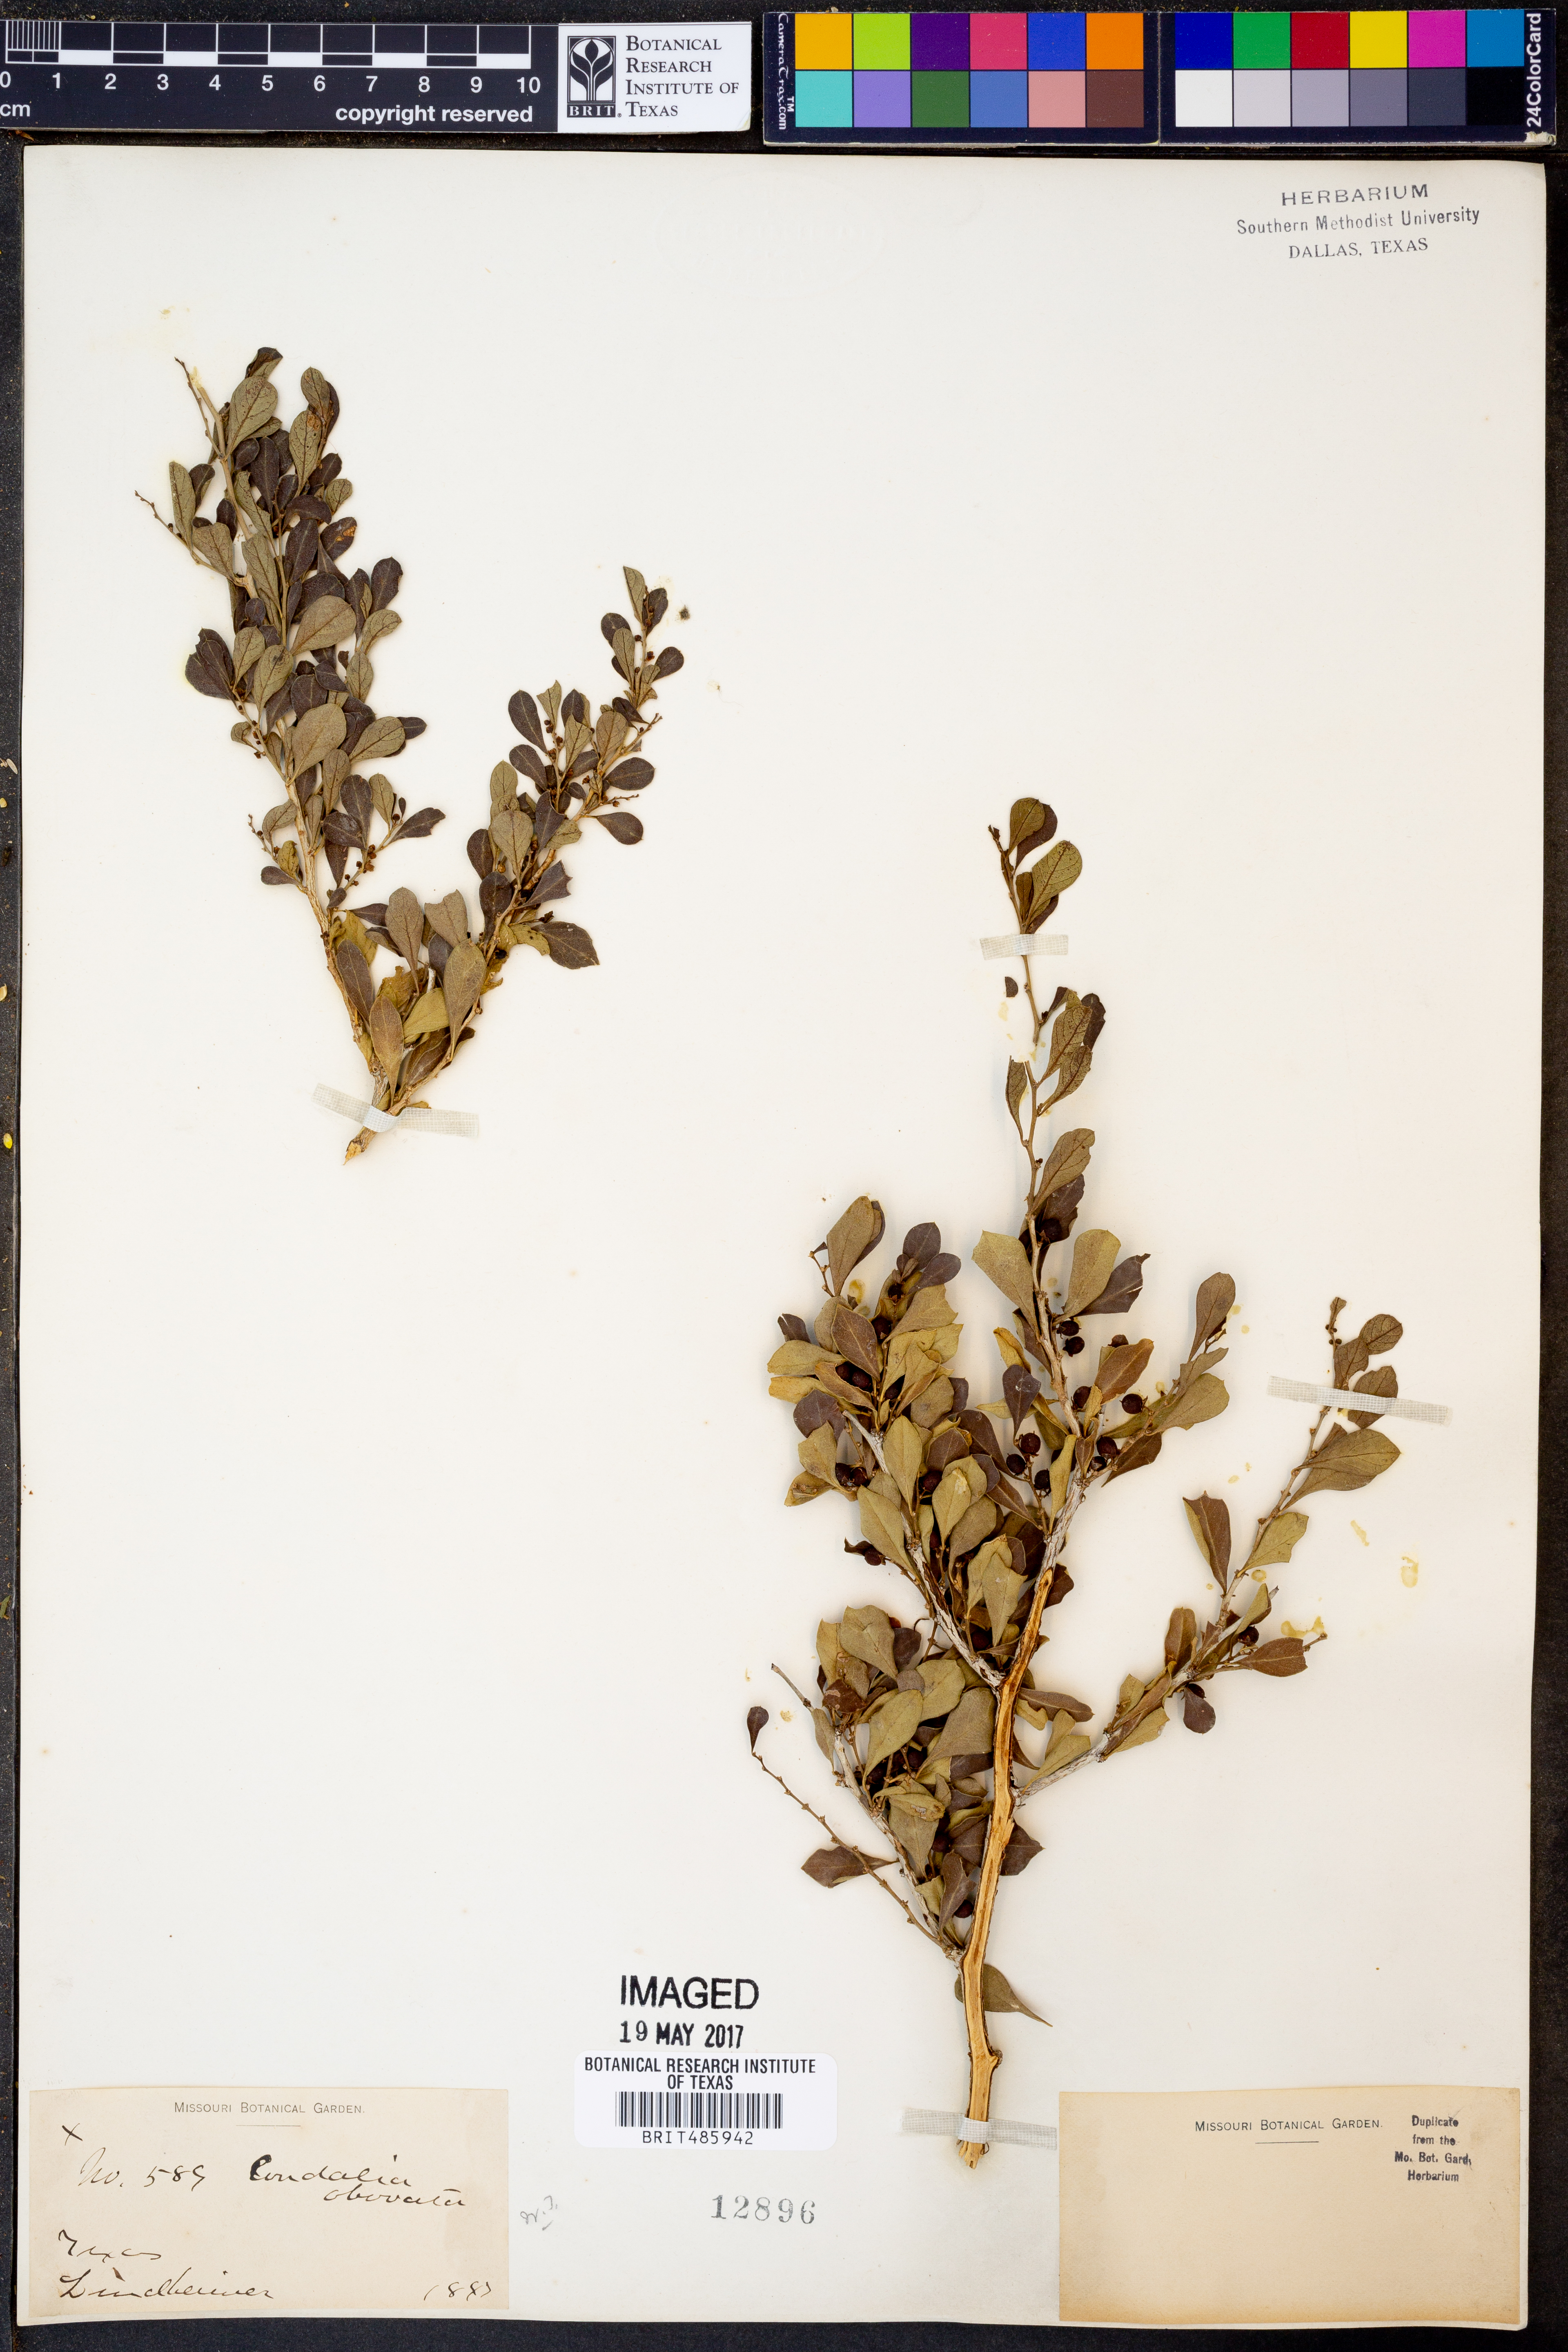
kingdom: Plantae
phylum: Tracheophyta
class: Magnoliopsida
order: Rosales
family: Rhamnaceae
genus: Condalia
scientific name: Condalia hookeri
